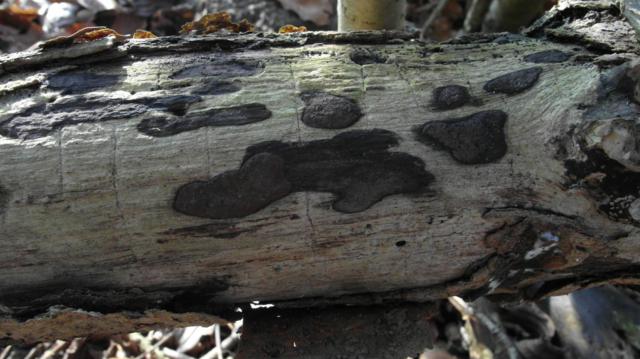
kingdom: Fungi
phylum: Ascomycota
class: Sordariomycetes
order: Xylariales
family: Hypoxylaceae
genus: Hypoxylon
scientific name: Hypoxylon petriniae
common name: nedsænket kulbær
